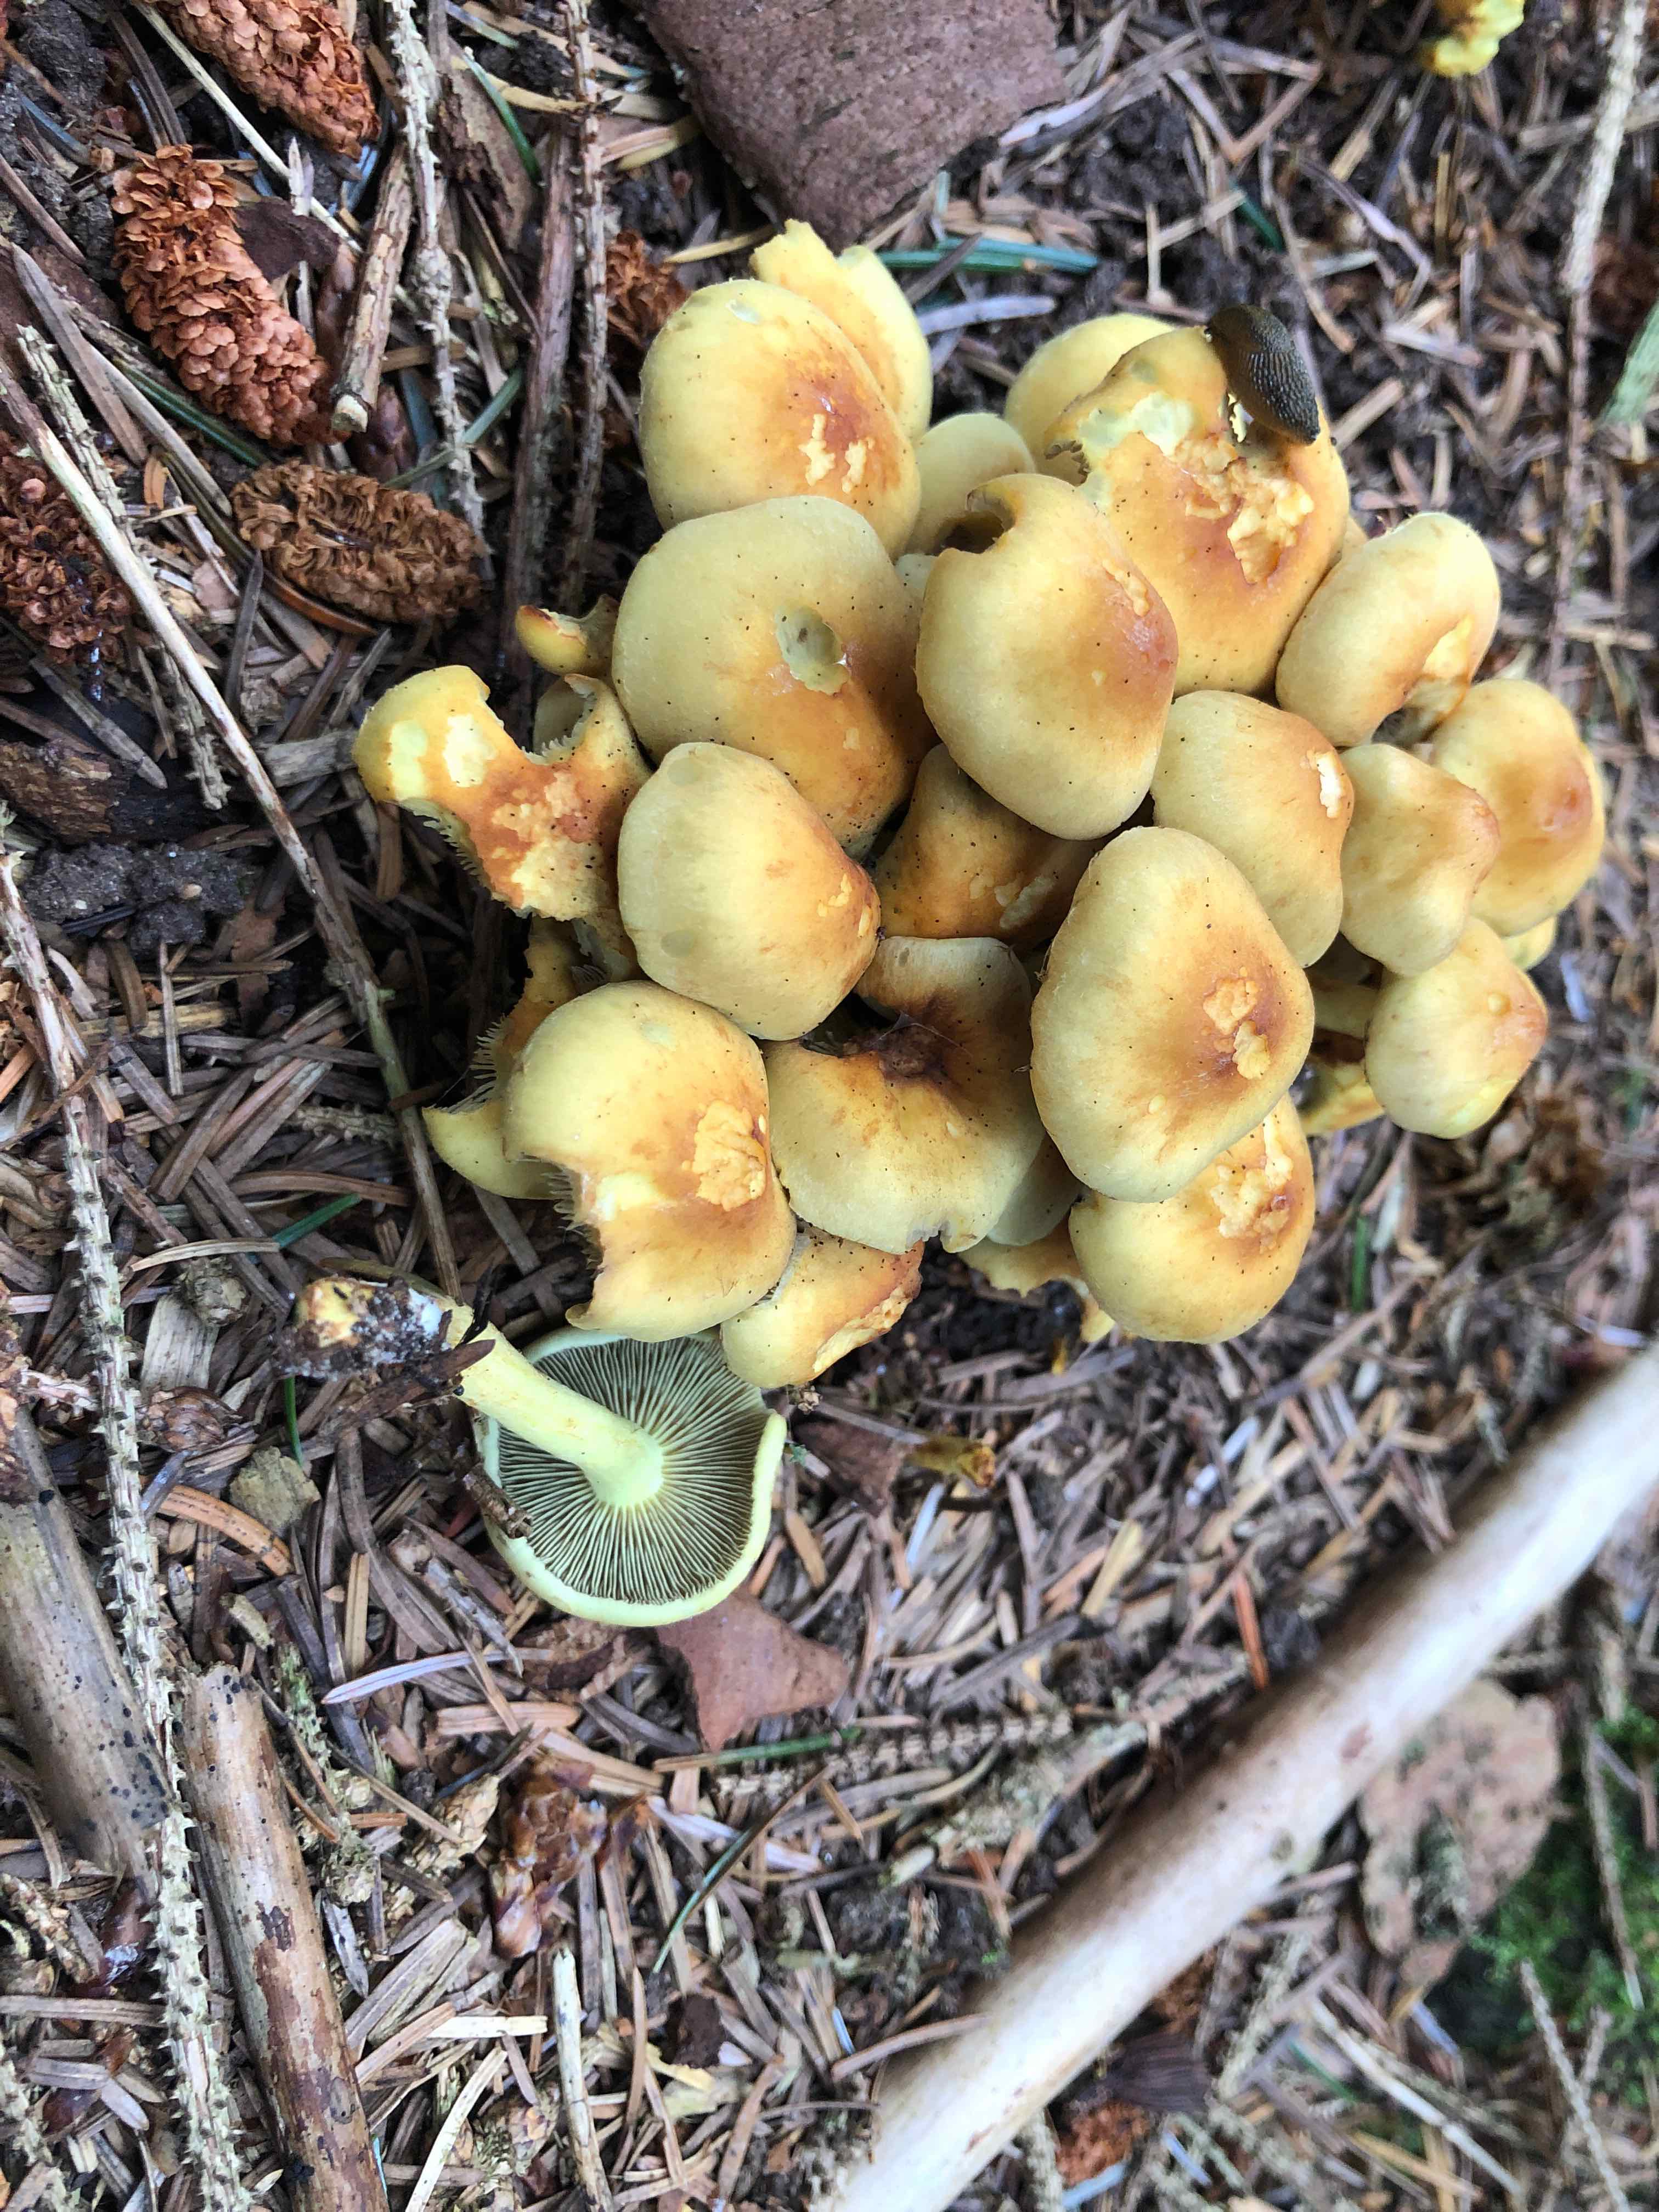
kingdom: Fungi
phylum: Basidiomycota
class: Agaricomycetes
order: Agaricales
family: Strophariaceae
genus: Hypholoma
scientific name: Hypholoma fasciculare
